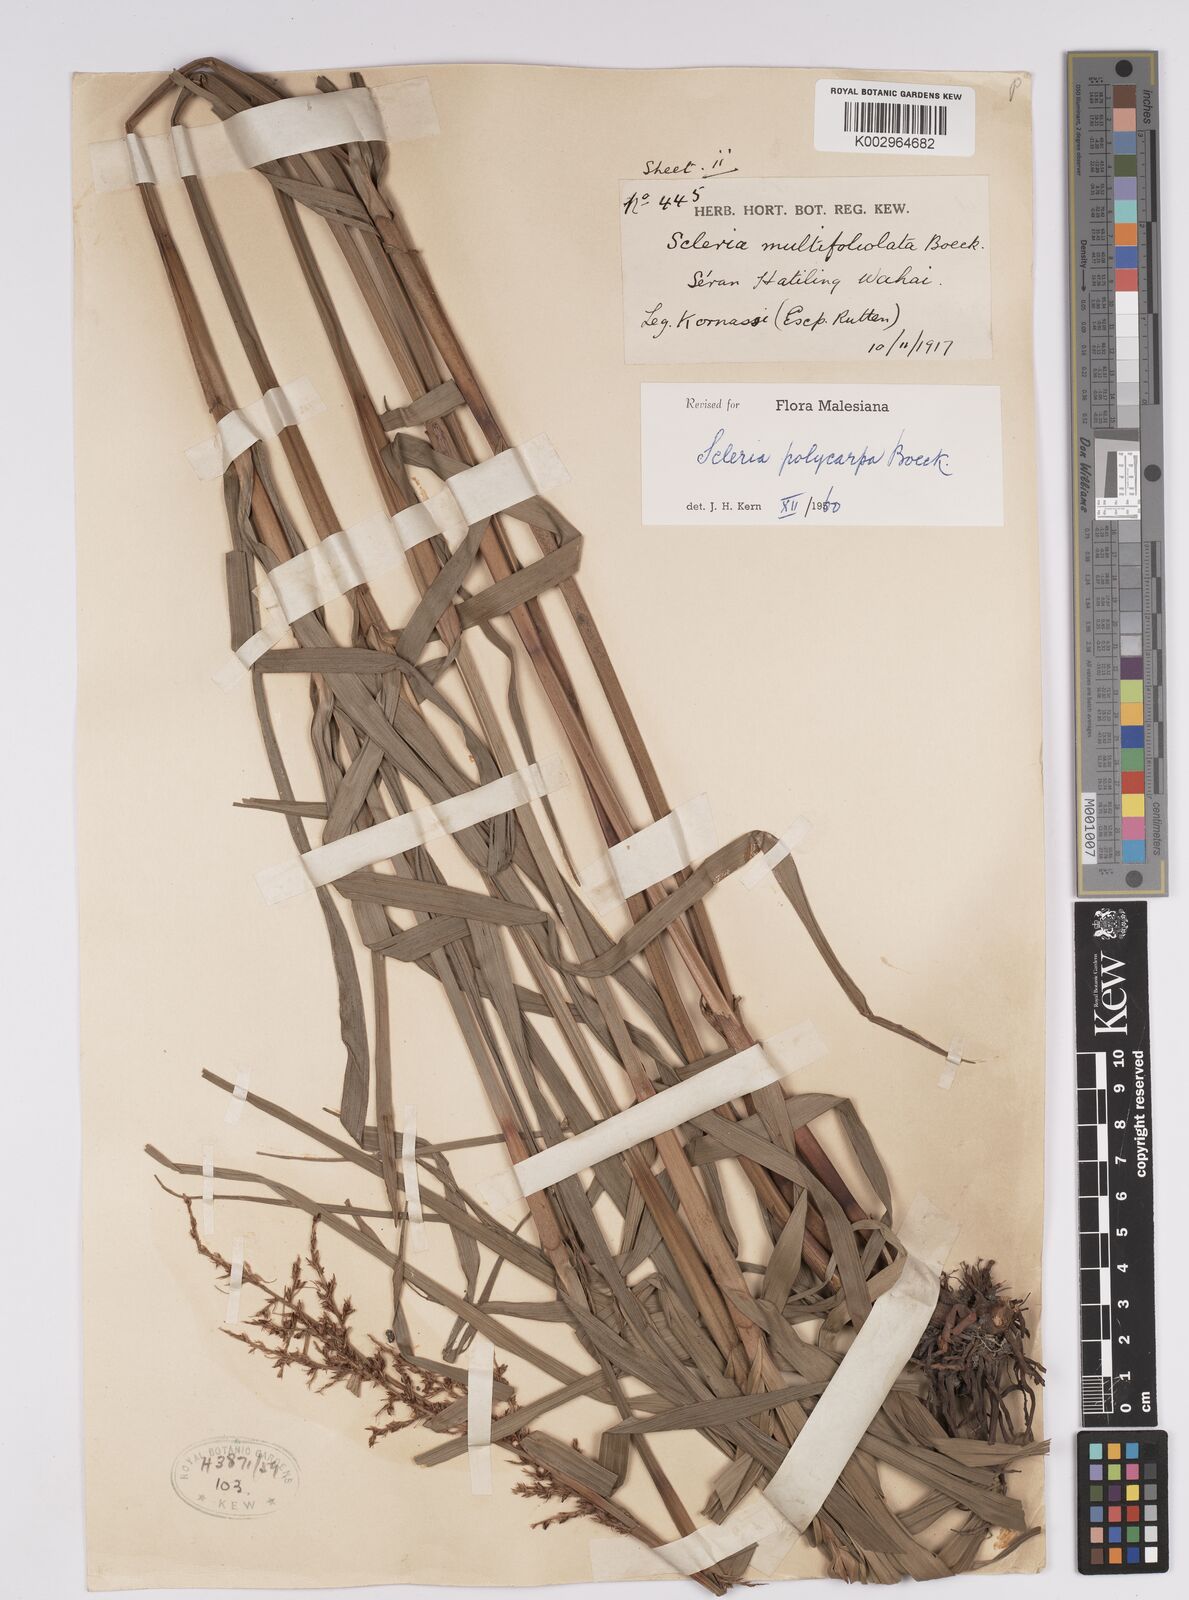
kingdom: Plantae
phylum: Tracheophyta
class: Liliopsida
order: Poales
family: Cyperaceae
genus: Scleria
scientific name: Scleria polycarpa
